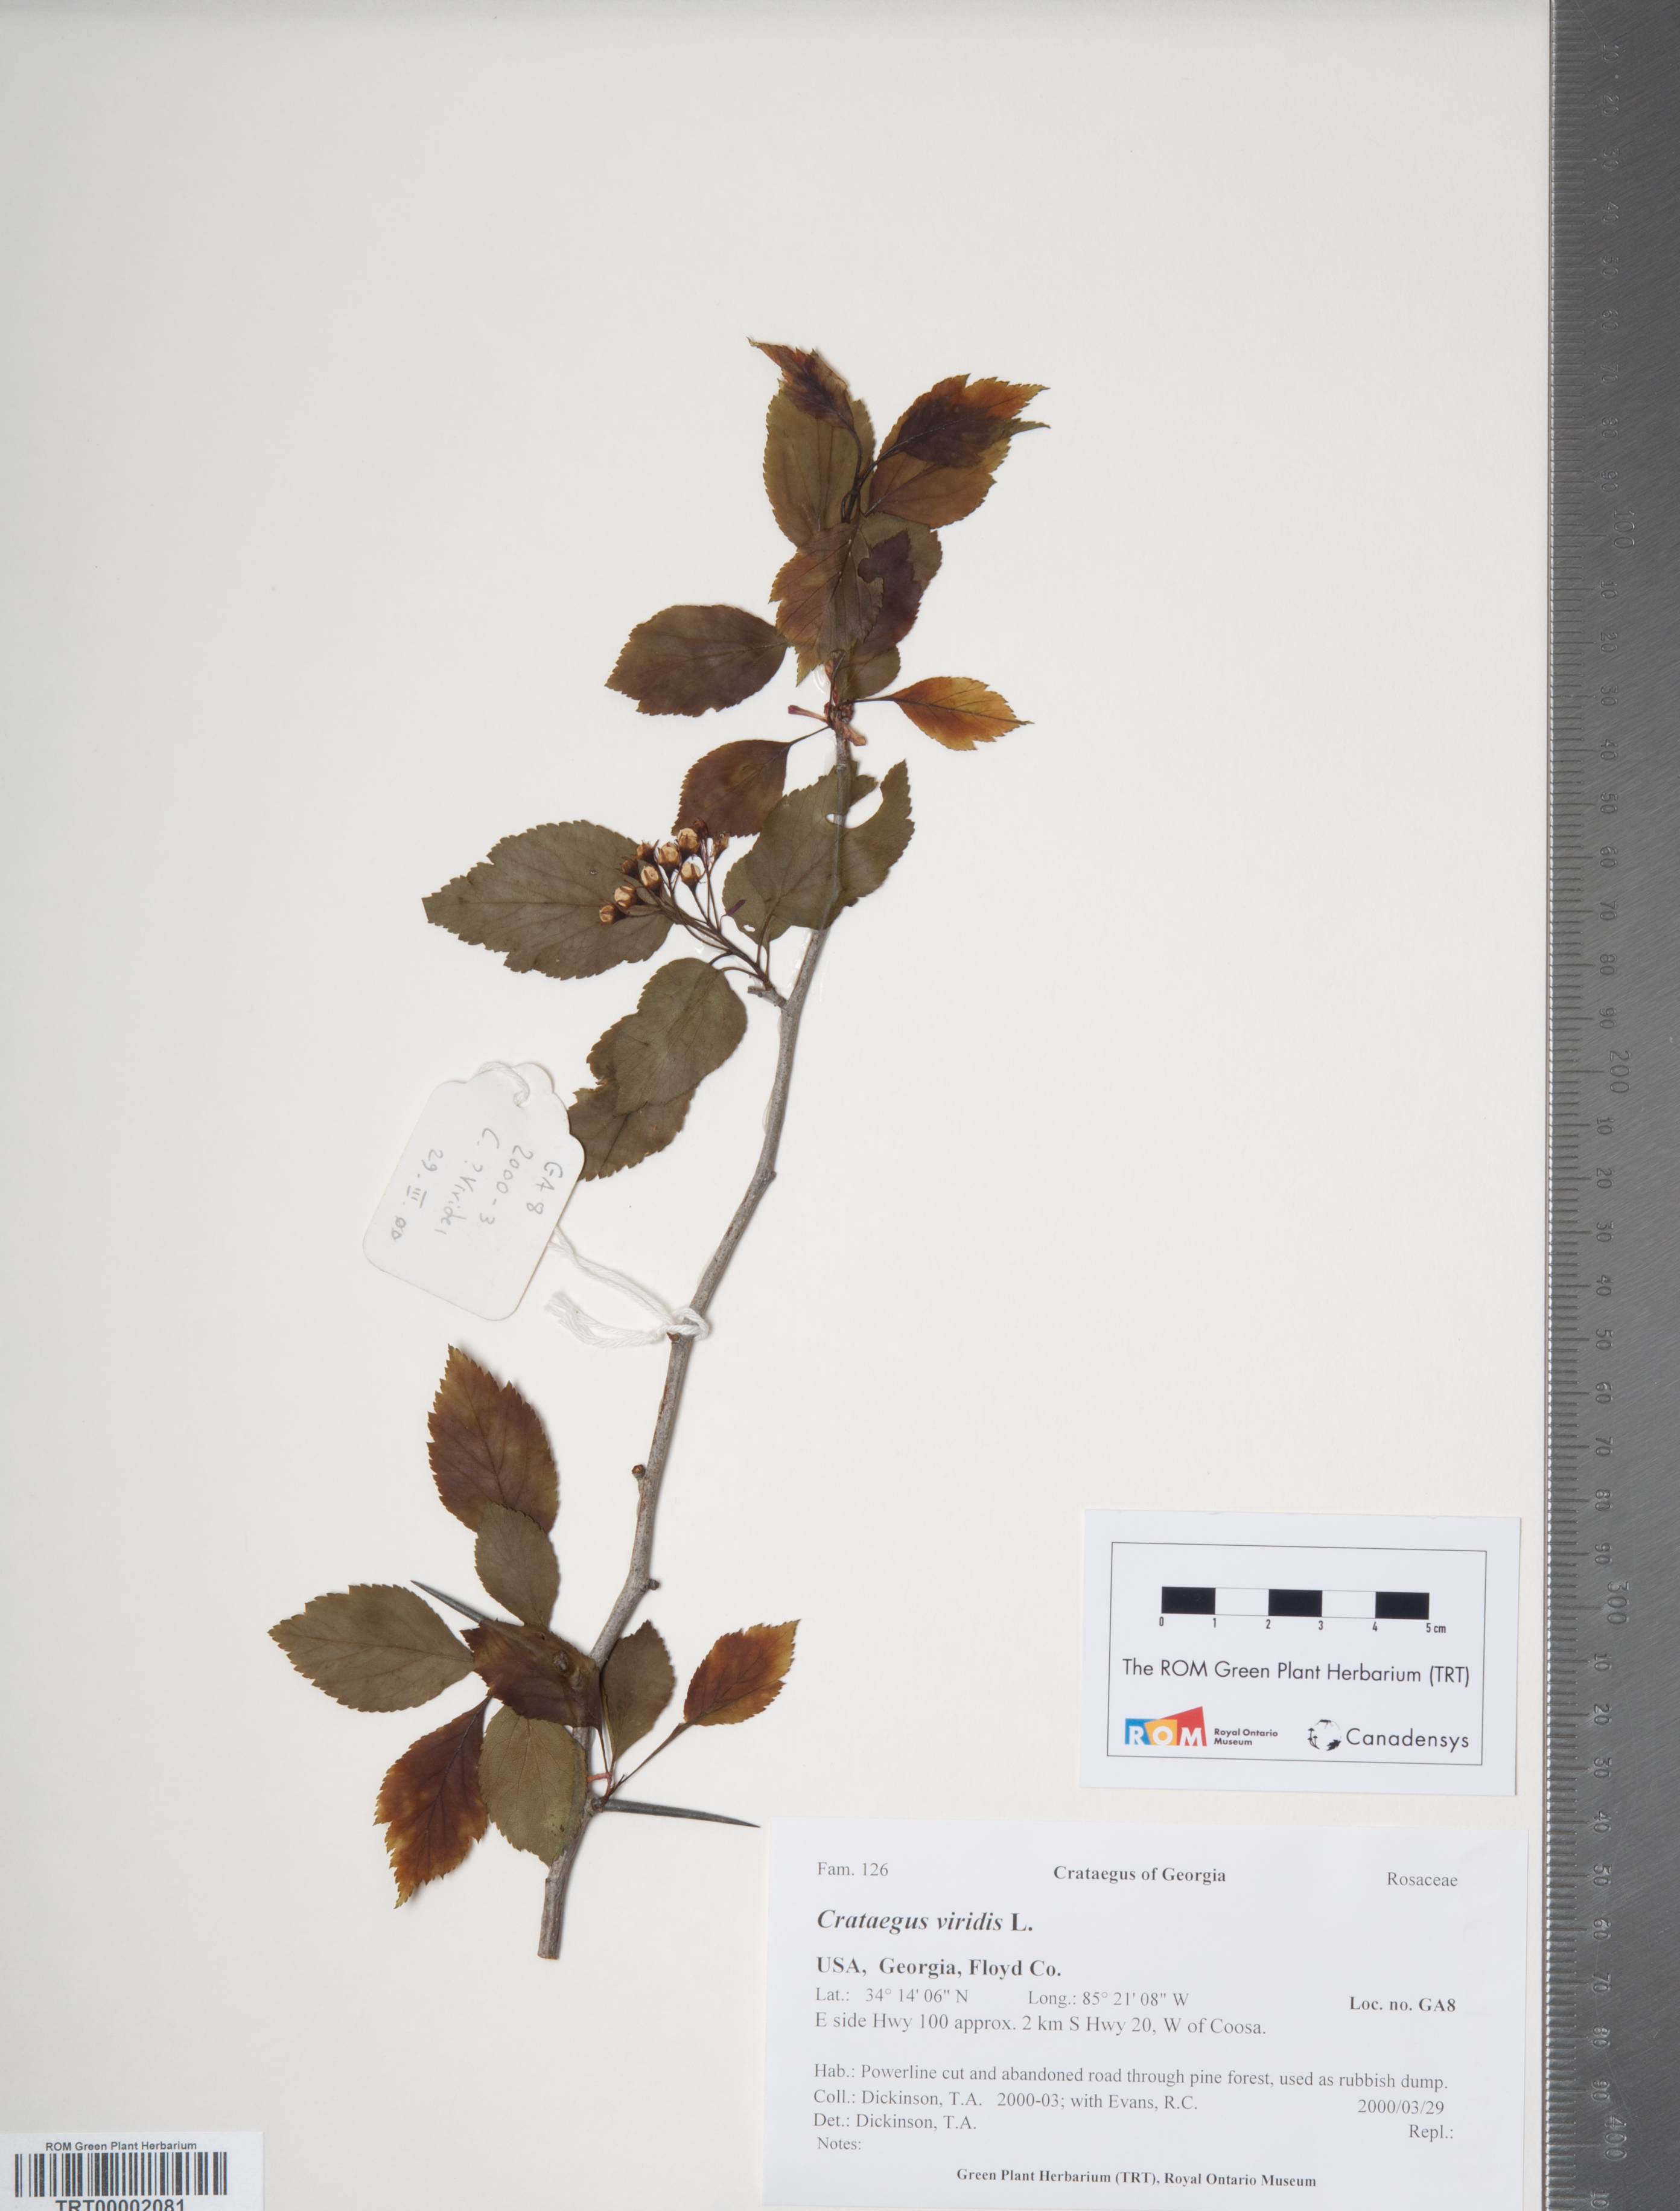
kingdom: Plantae
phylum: Tracheophyta
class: Magnoliopsida
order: Rosales
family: Rosaceae
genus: Crataegus
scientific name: Crataegus viridis
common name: Southernthorn
